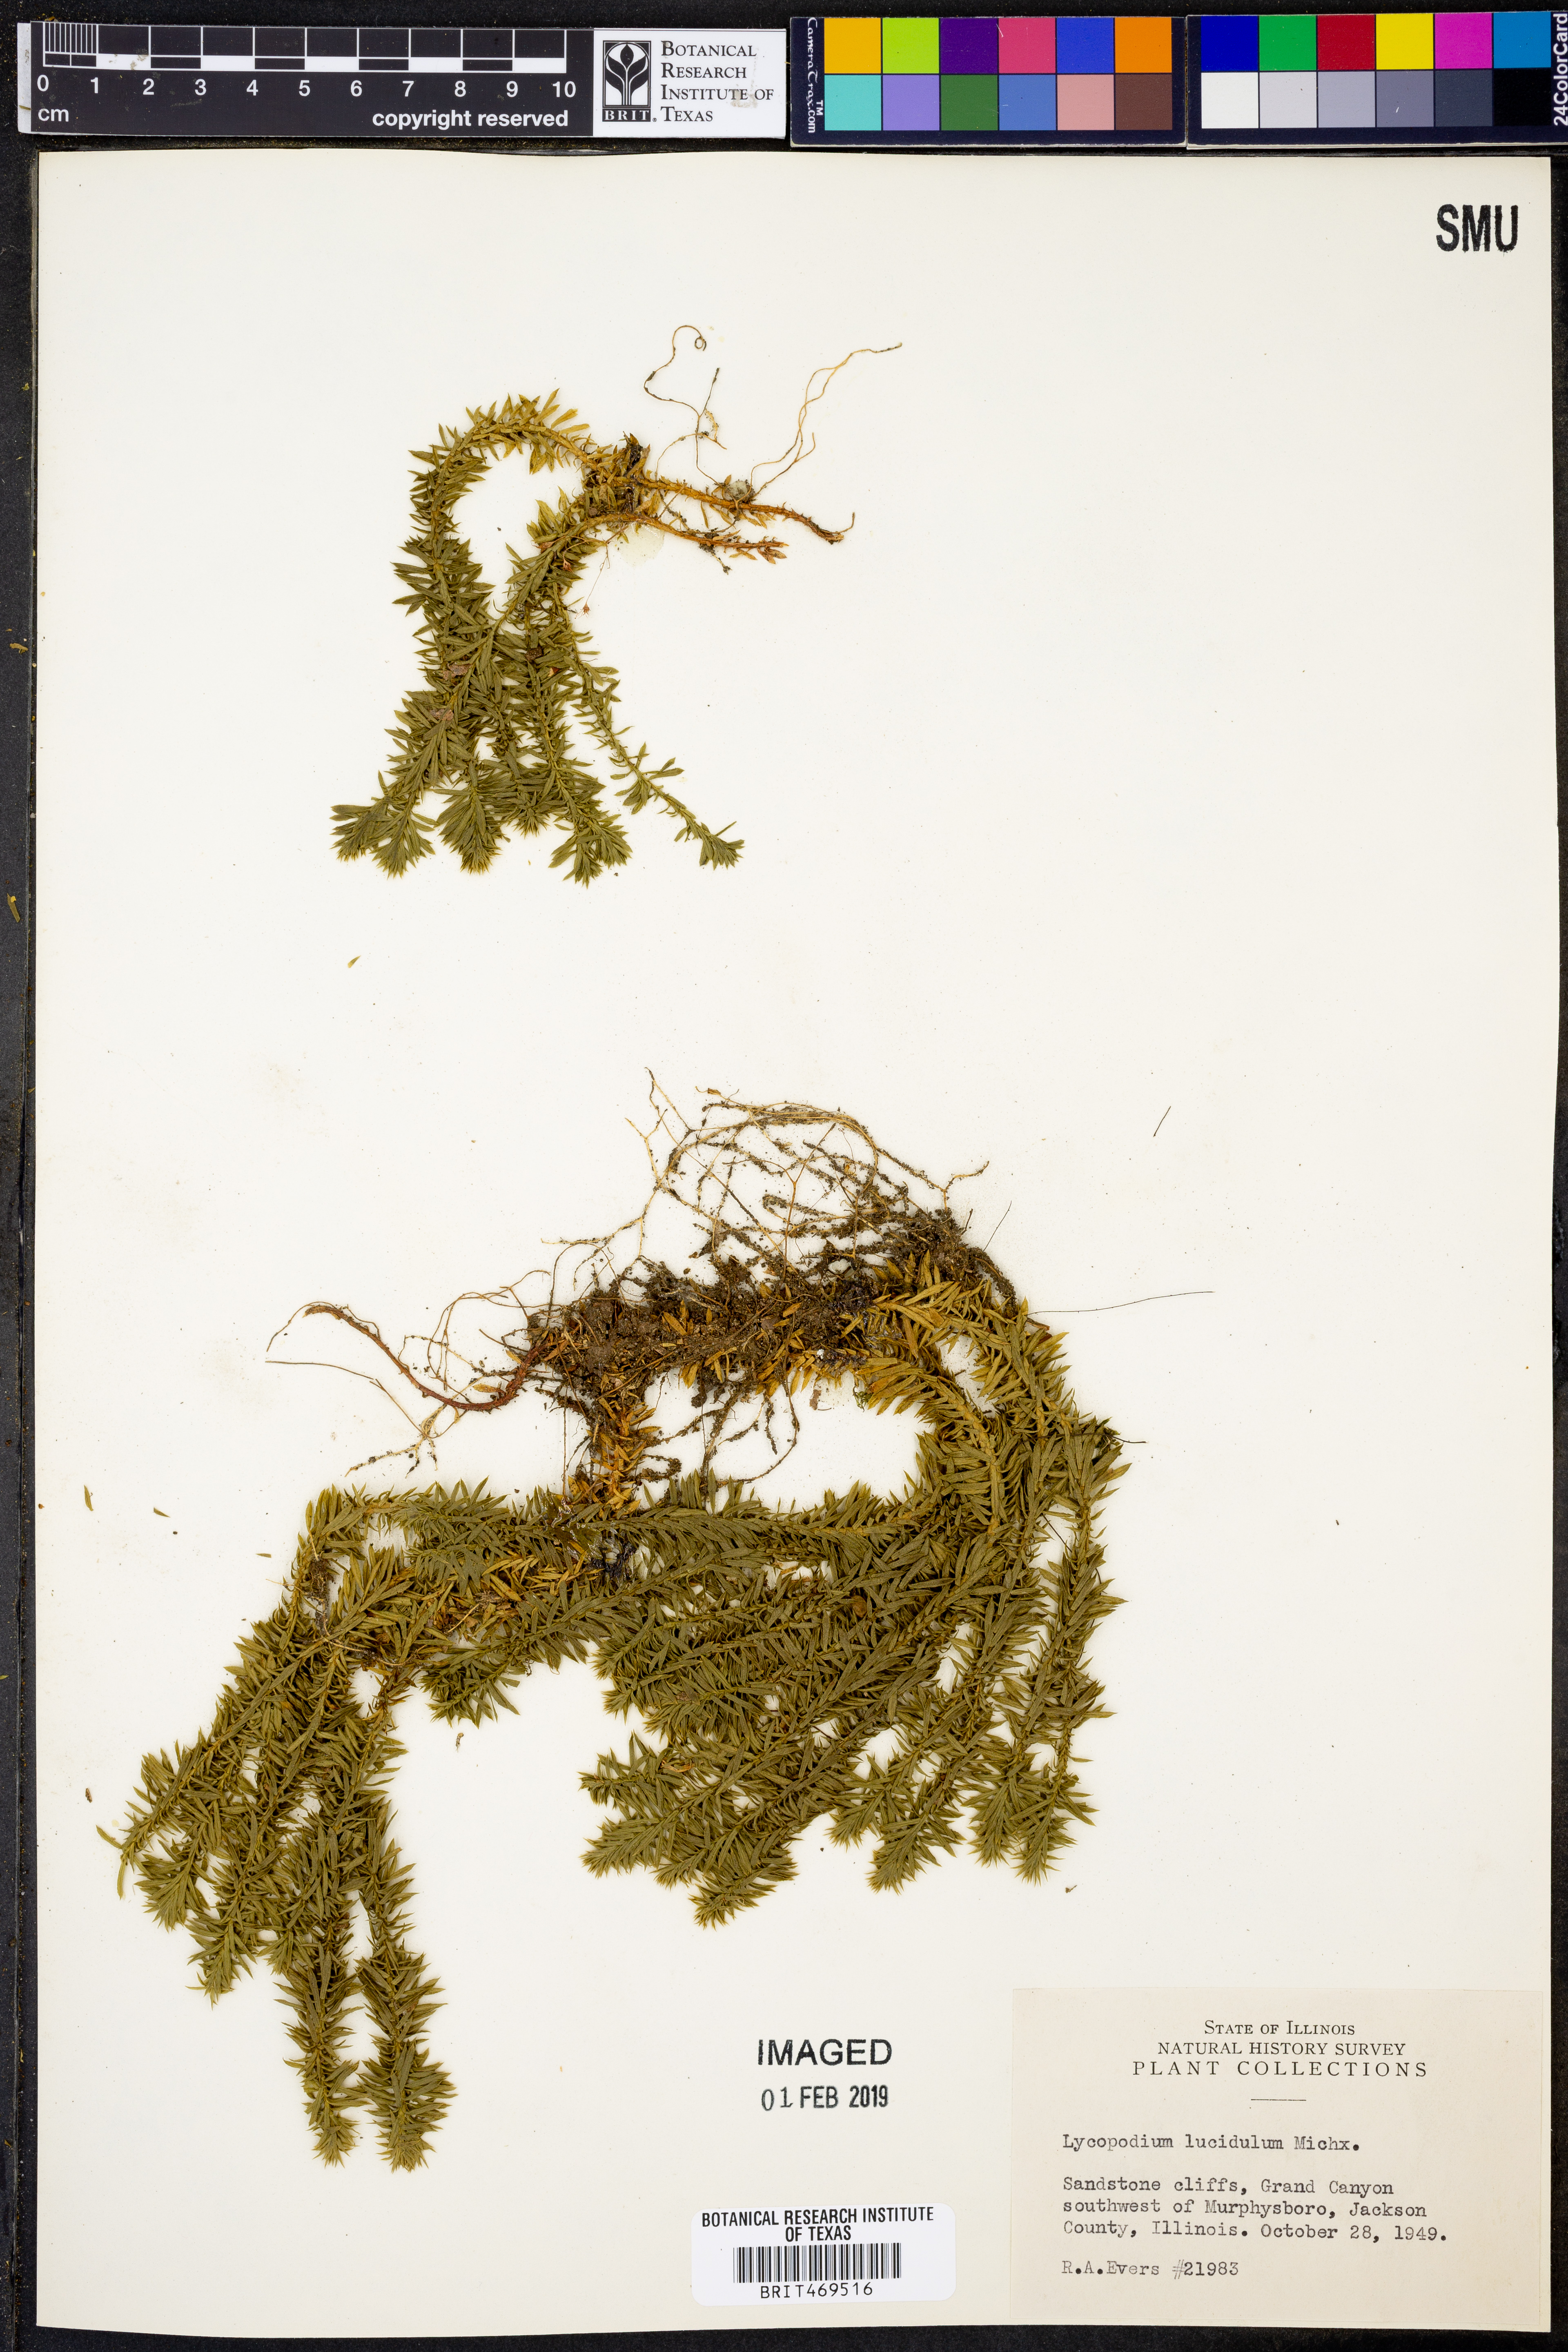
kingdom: Plantae
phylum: Tracheophyta
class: Lycopodiopsida
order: Lycopodiales
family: Lycopodiaceae
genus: Huperzia
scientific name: Huperzia lucidula
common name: Shining clubmoss
